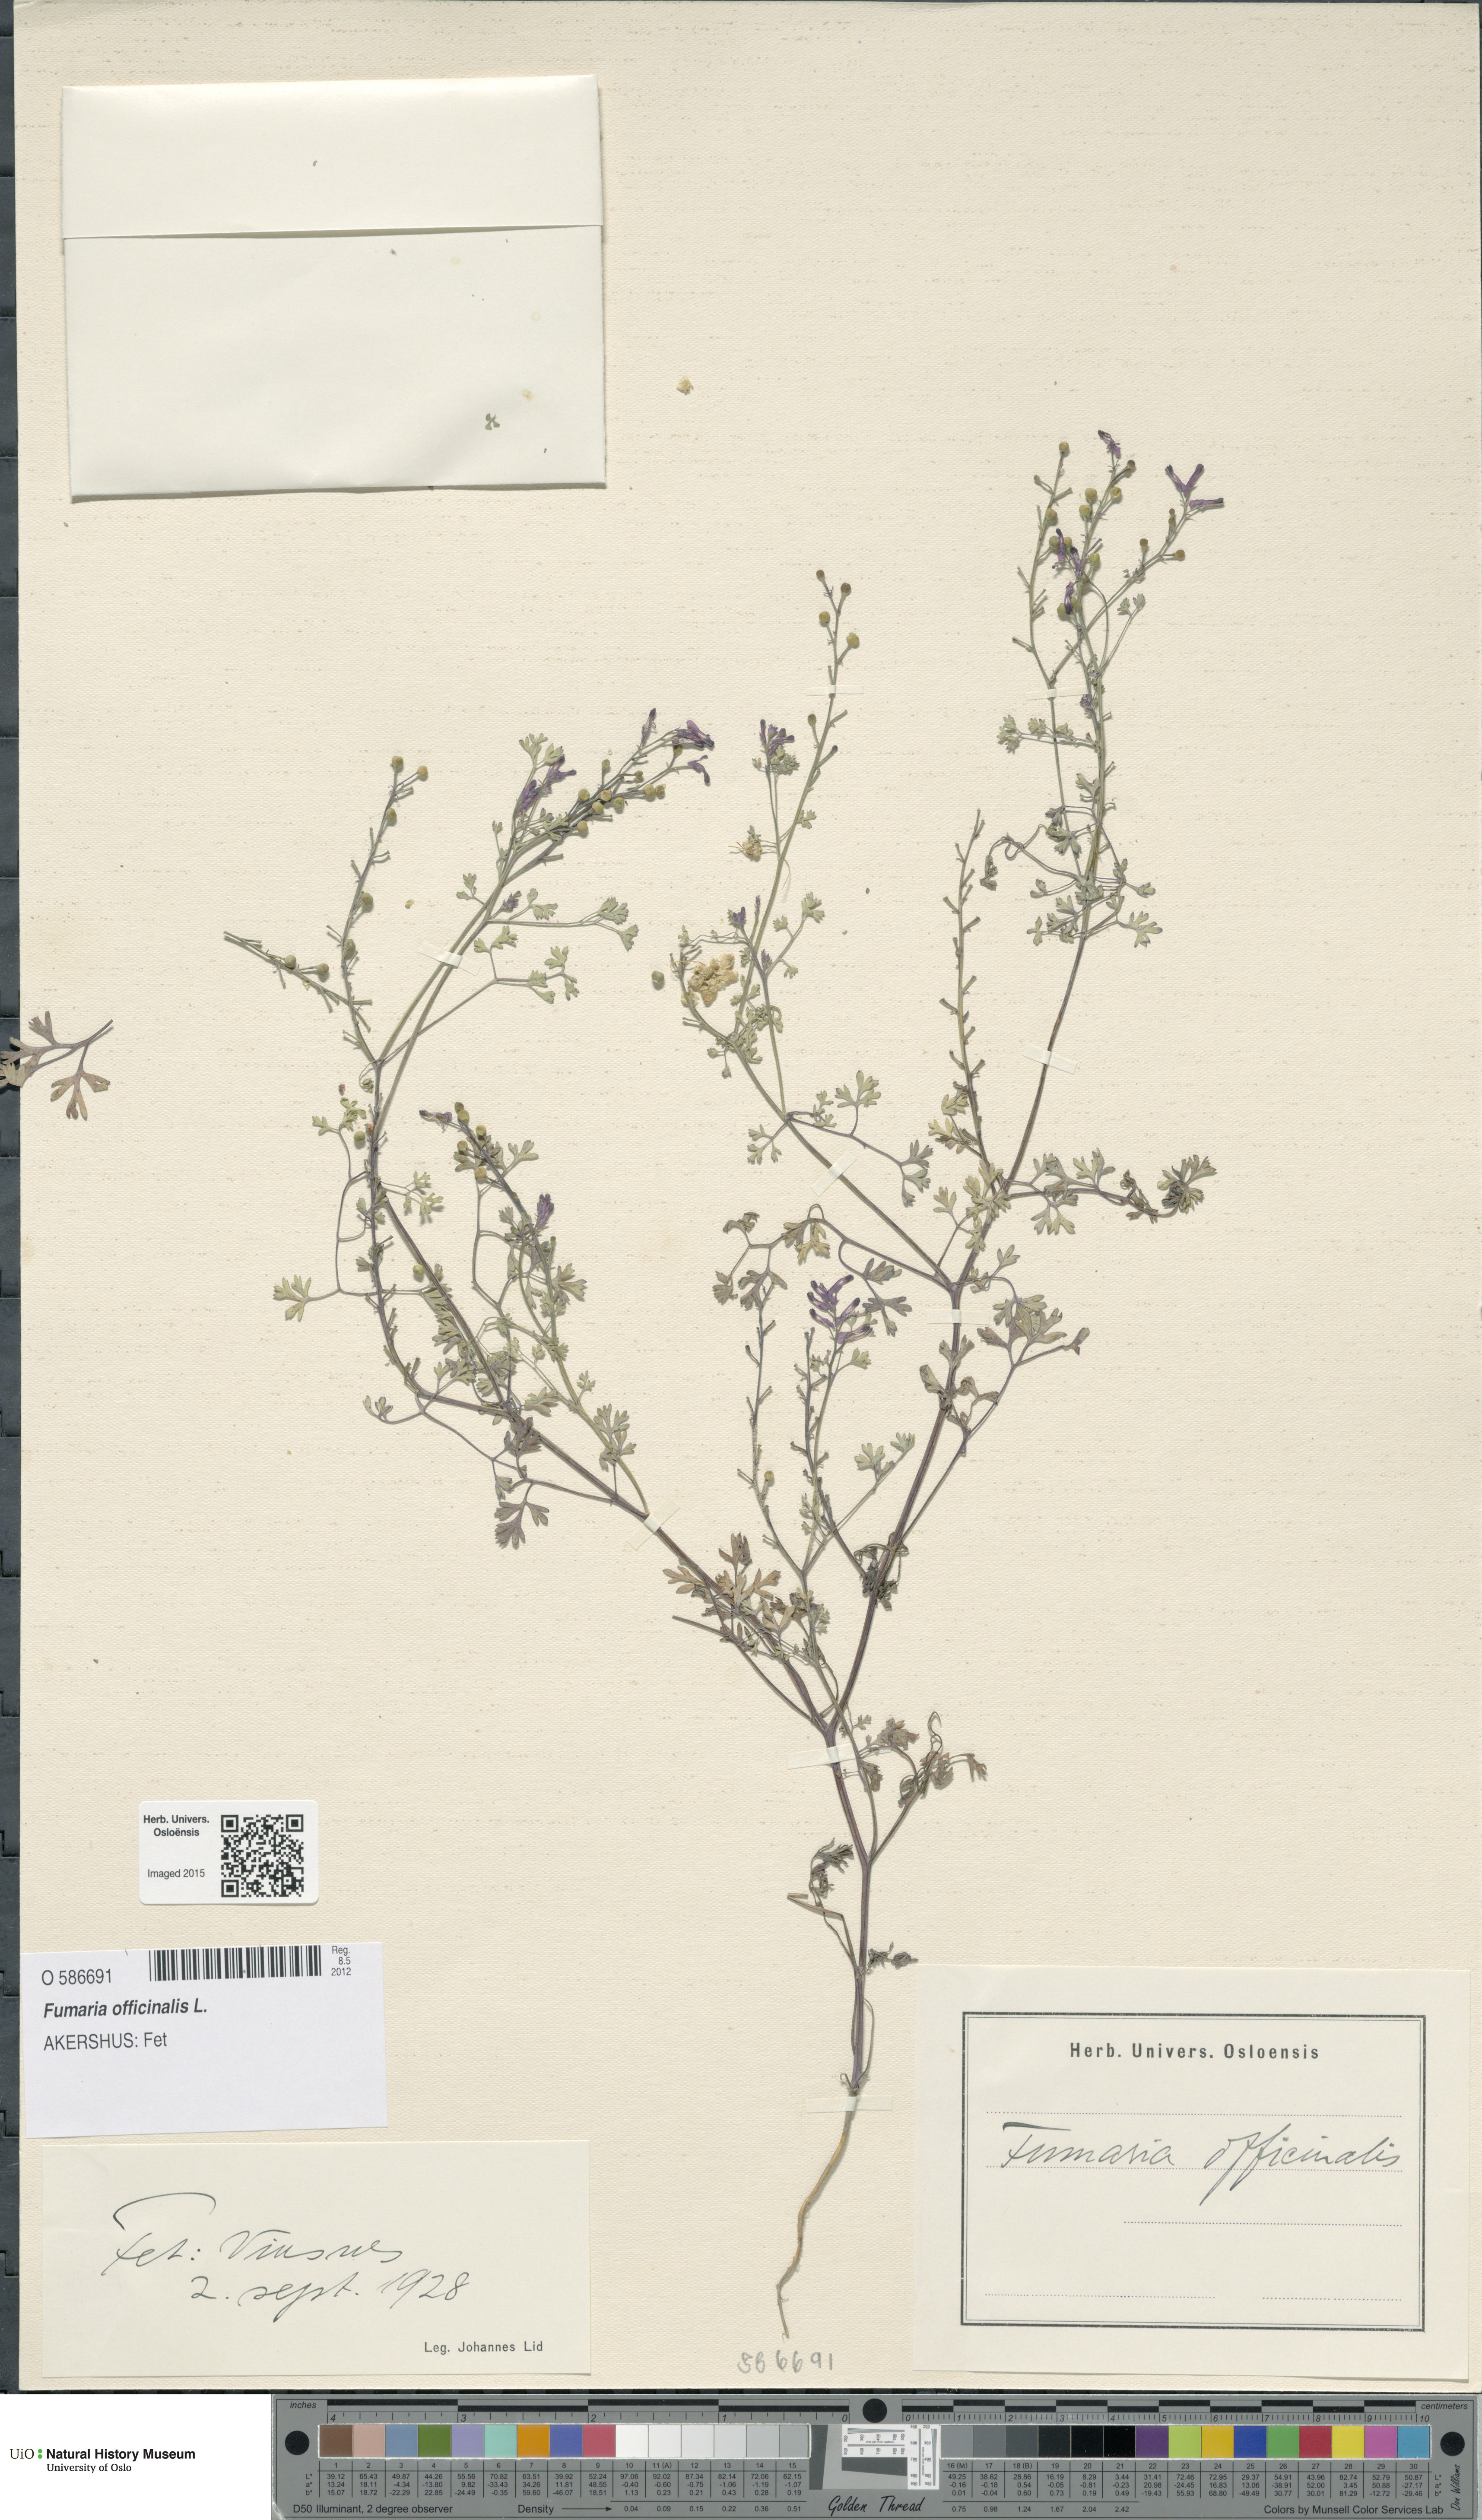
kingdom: Plantae
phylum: Tracheophyta
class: Magnoliopsida
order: Ranunculales
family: Papaveraceae
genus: Fumaria
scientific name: Fumaria officinalis
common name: Common fumitory
